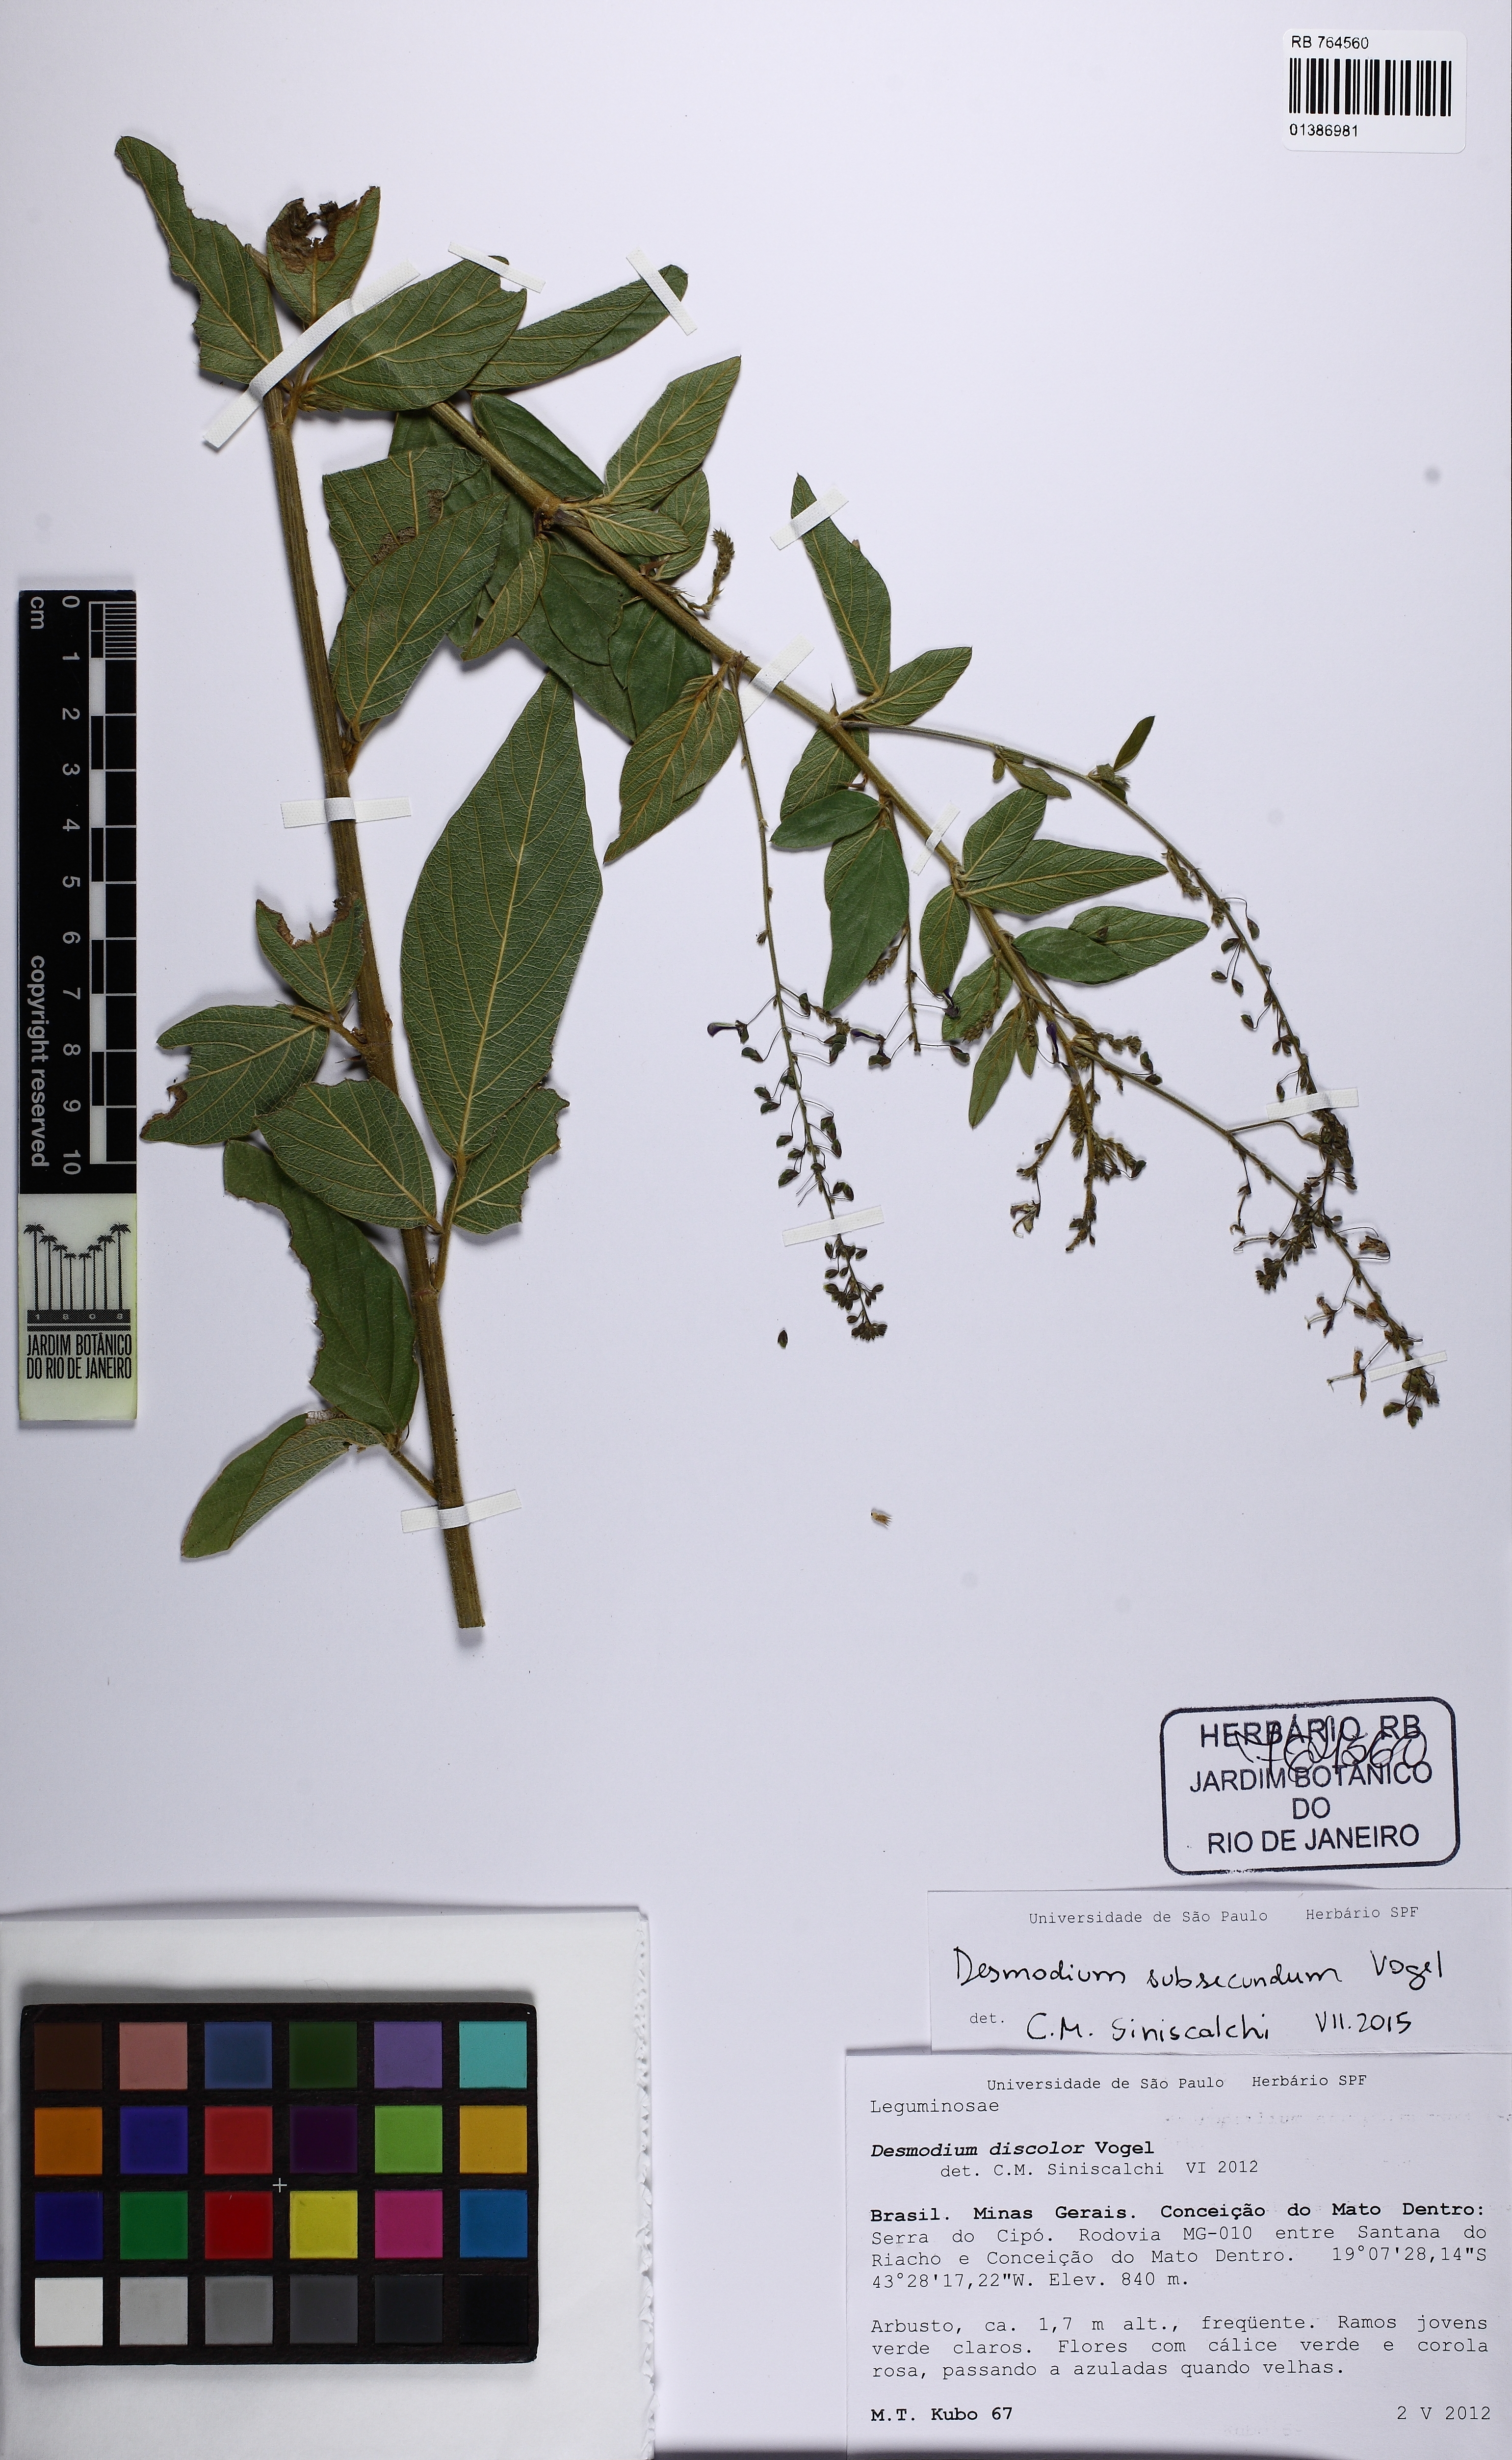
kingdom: Plantae
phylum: Tracheophyta
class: Magnoliopsida
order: Fabales
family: Fabaceae
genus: Desmodium
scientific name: Desmodium subsecundum
